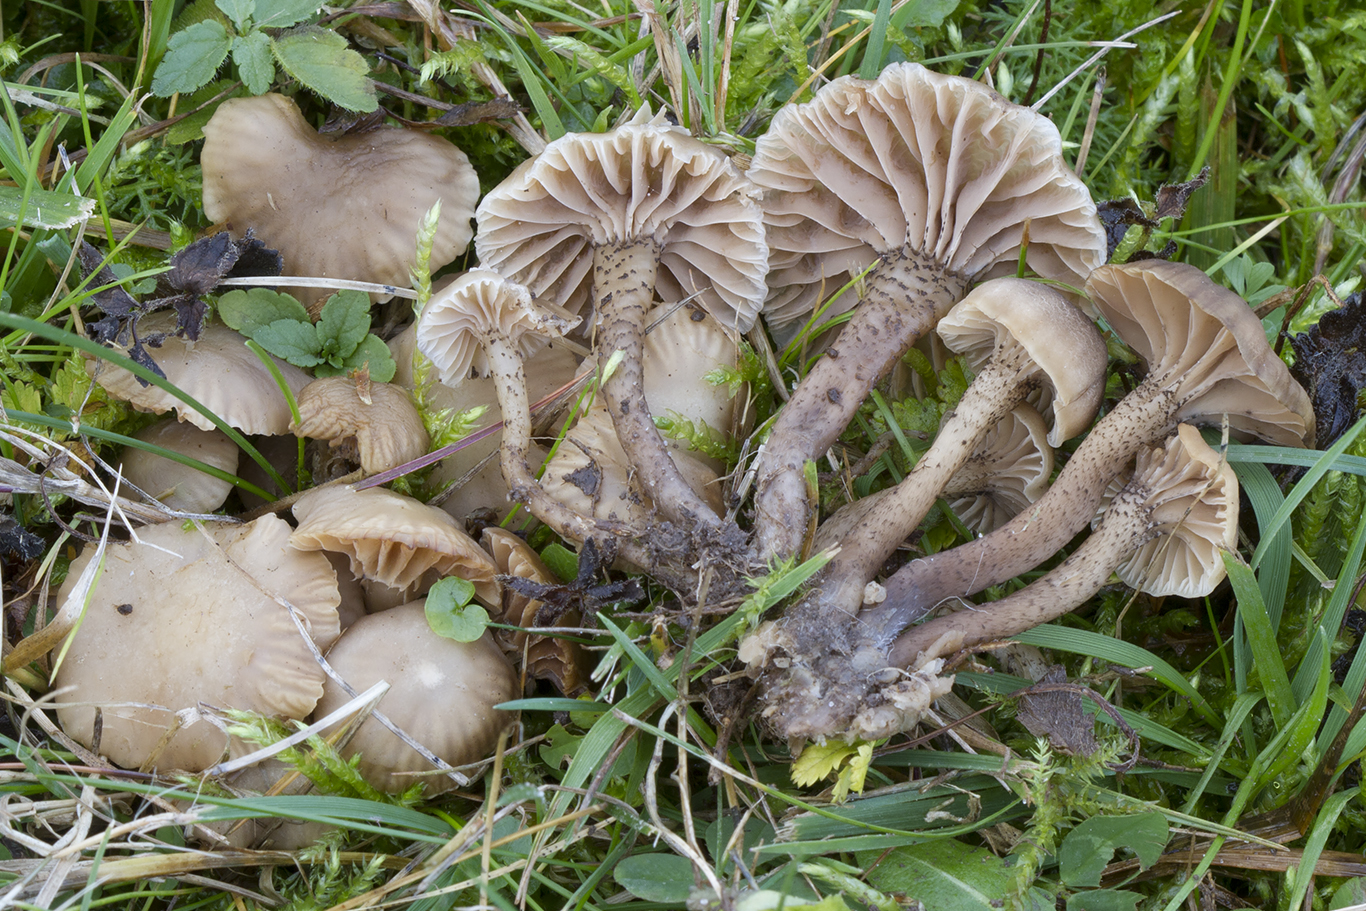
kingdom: Fungi
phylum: Basidiomycota
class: Agaricomycetes
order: Agaricales
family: Clavariaceae
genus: Hodophilus
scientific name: Hodophilus atropunctus
